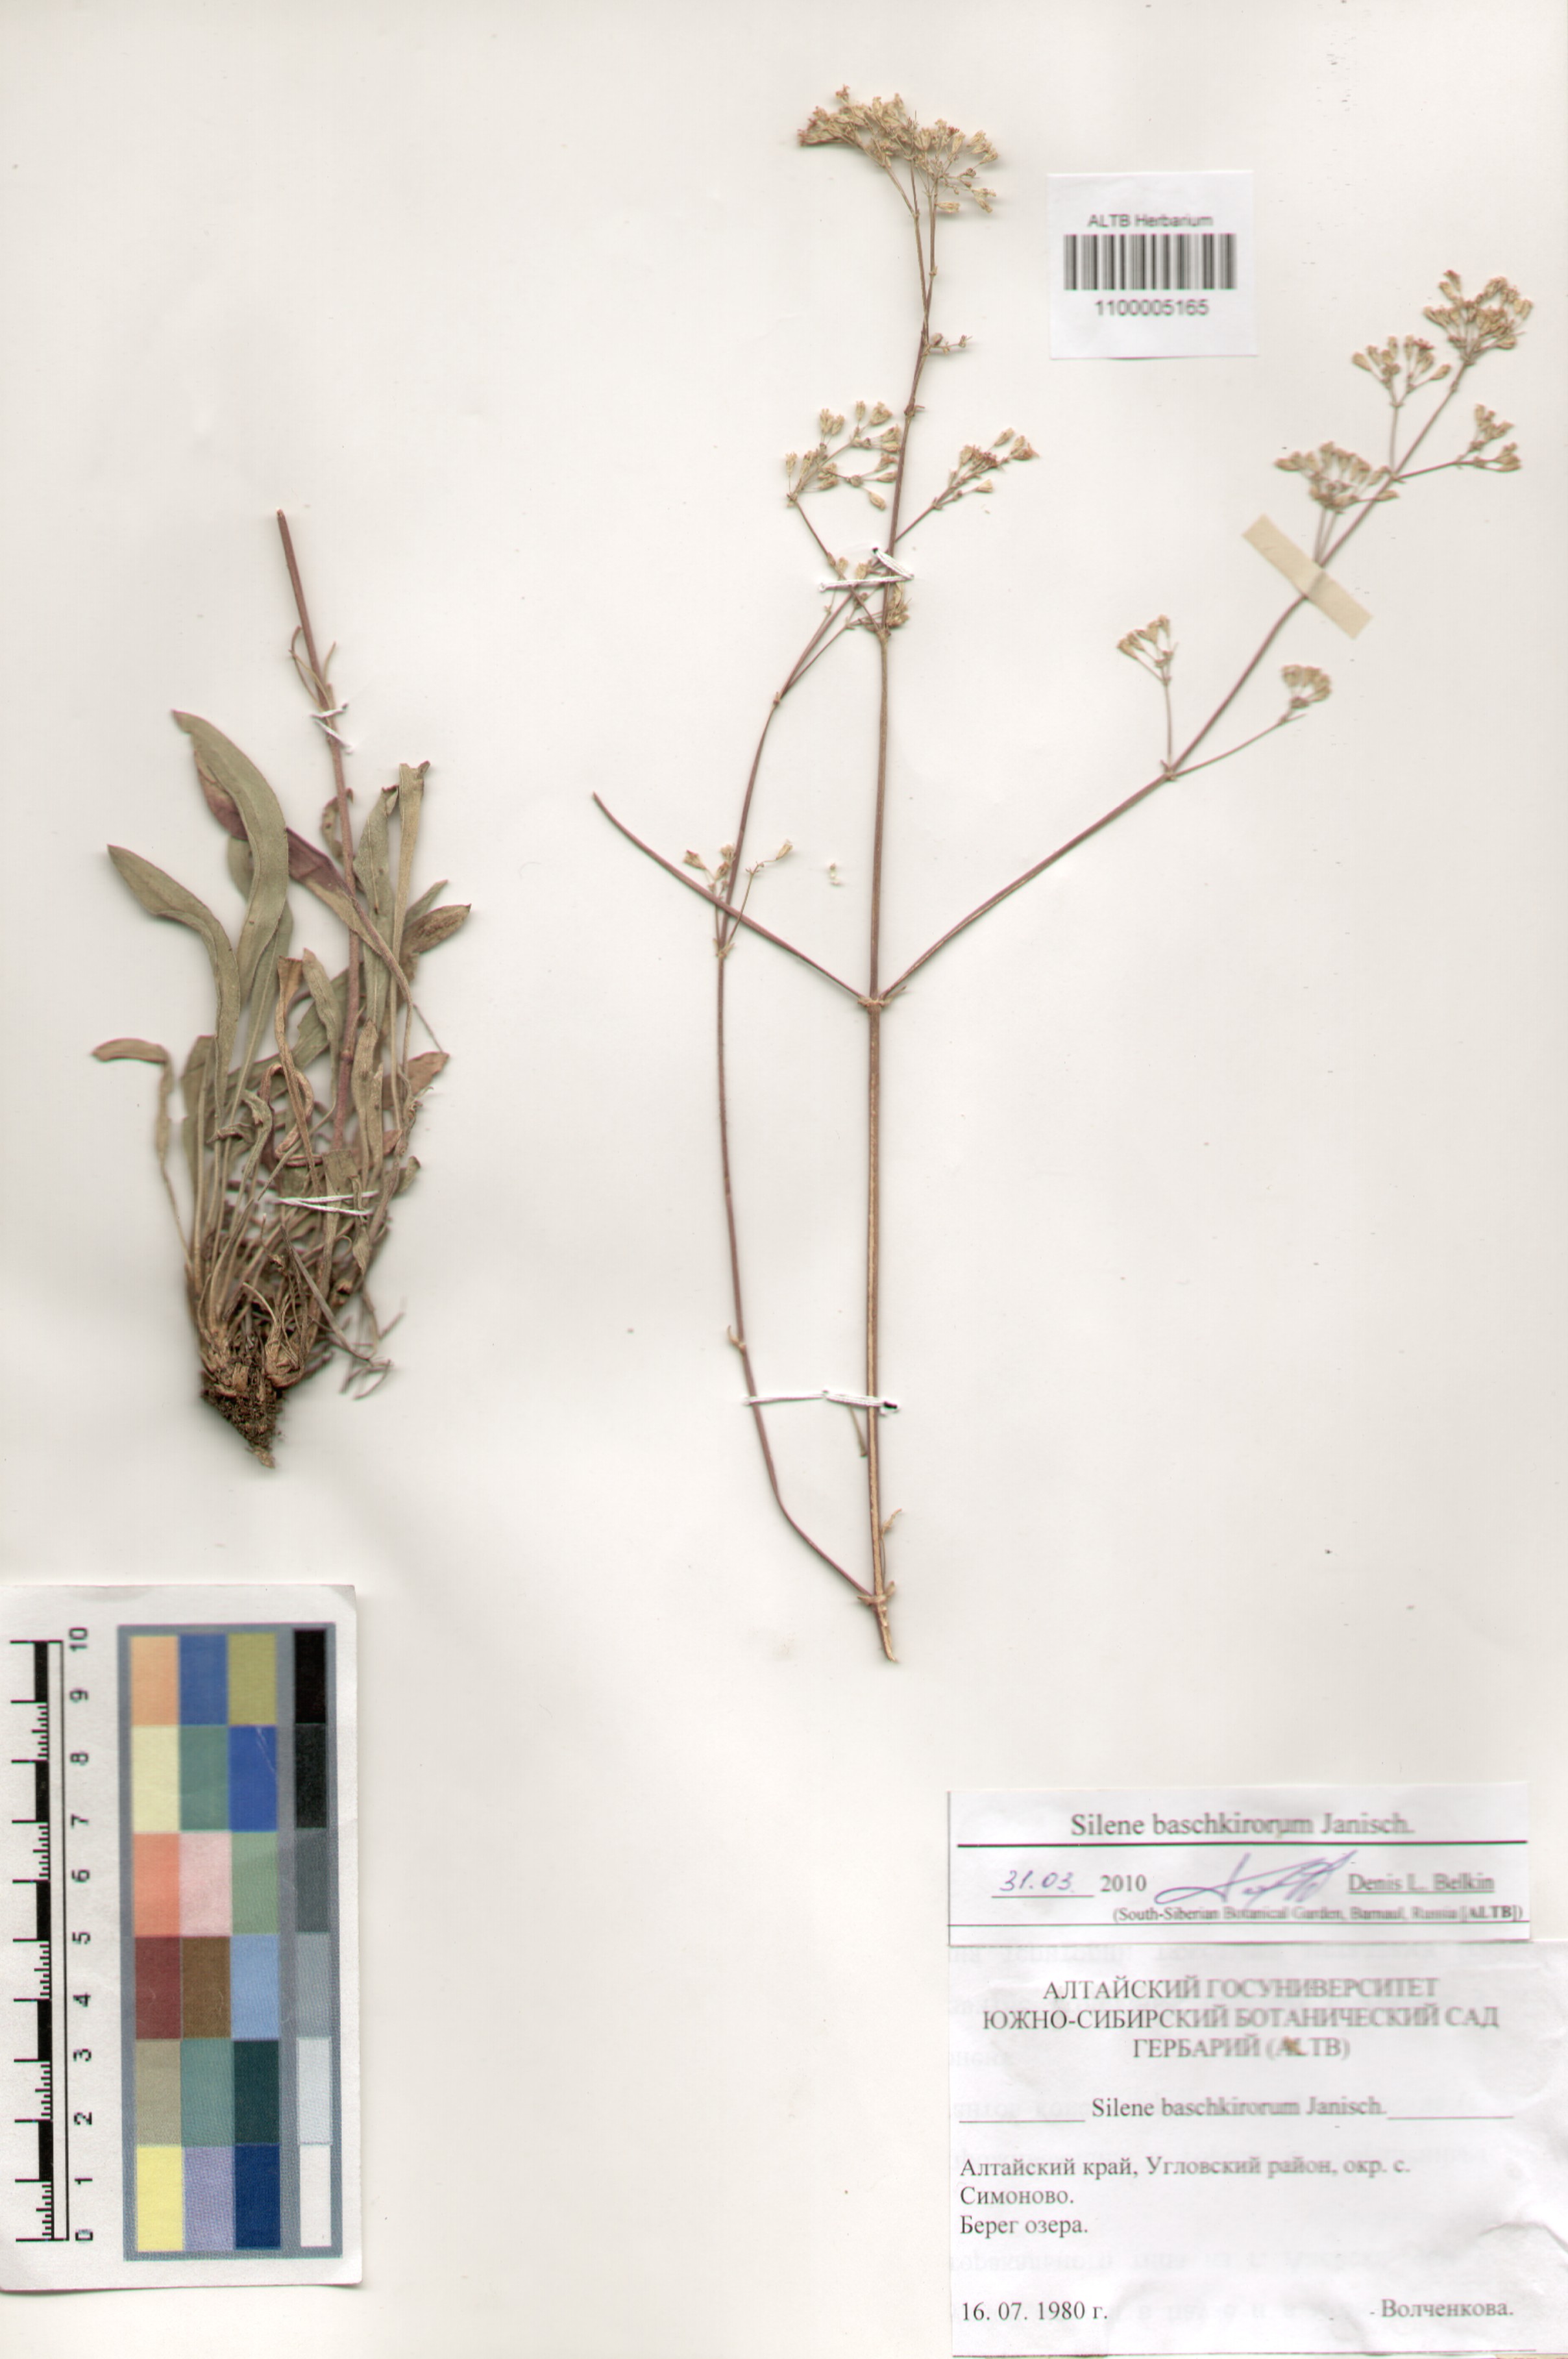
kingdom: Plantae
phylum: Tracheophyta
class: Magnoliopsida
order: Caryophyllales
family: Caryophyllaceae
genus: Silene
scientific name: Silene baschkirorum
